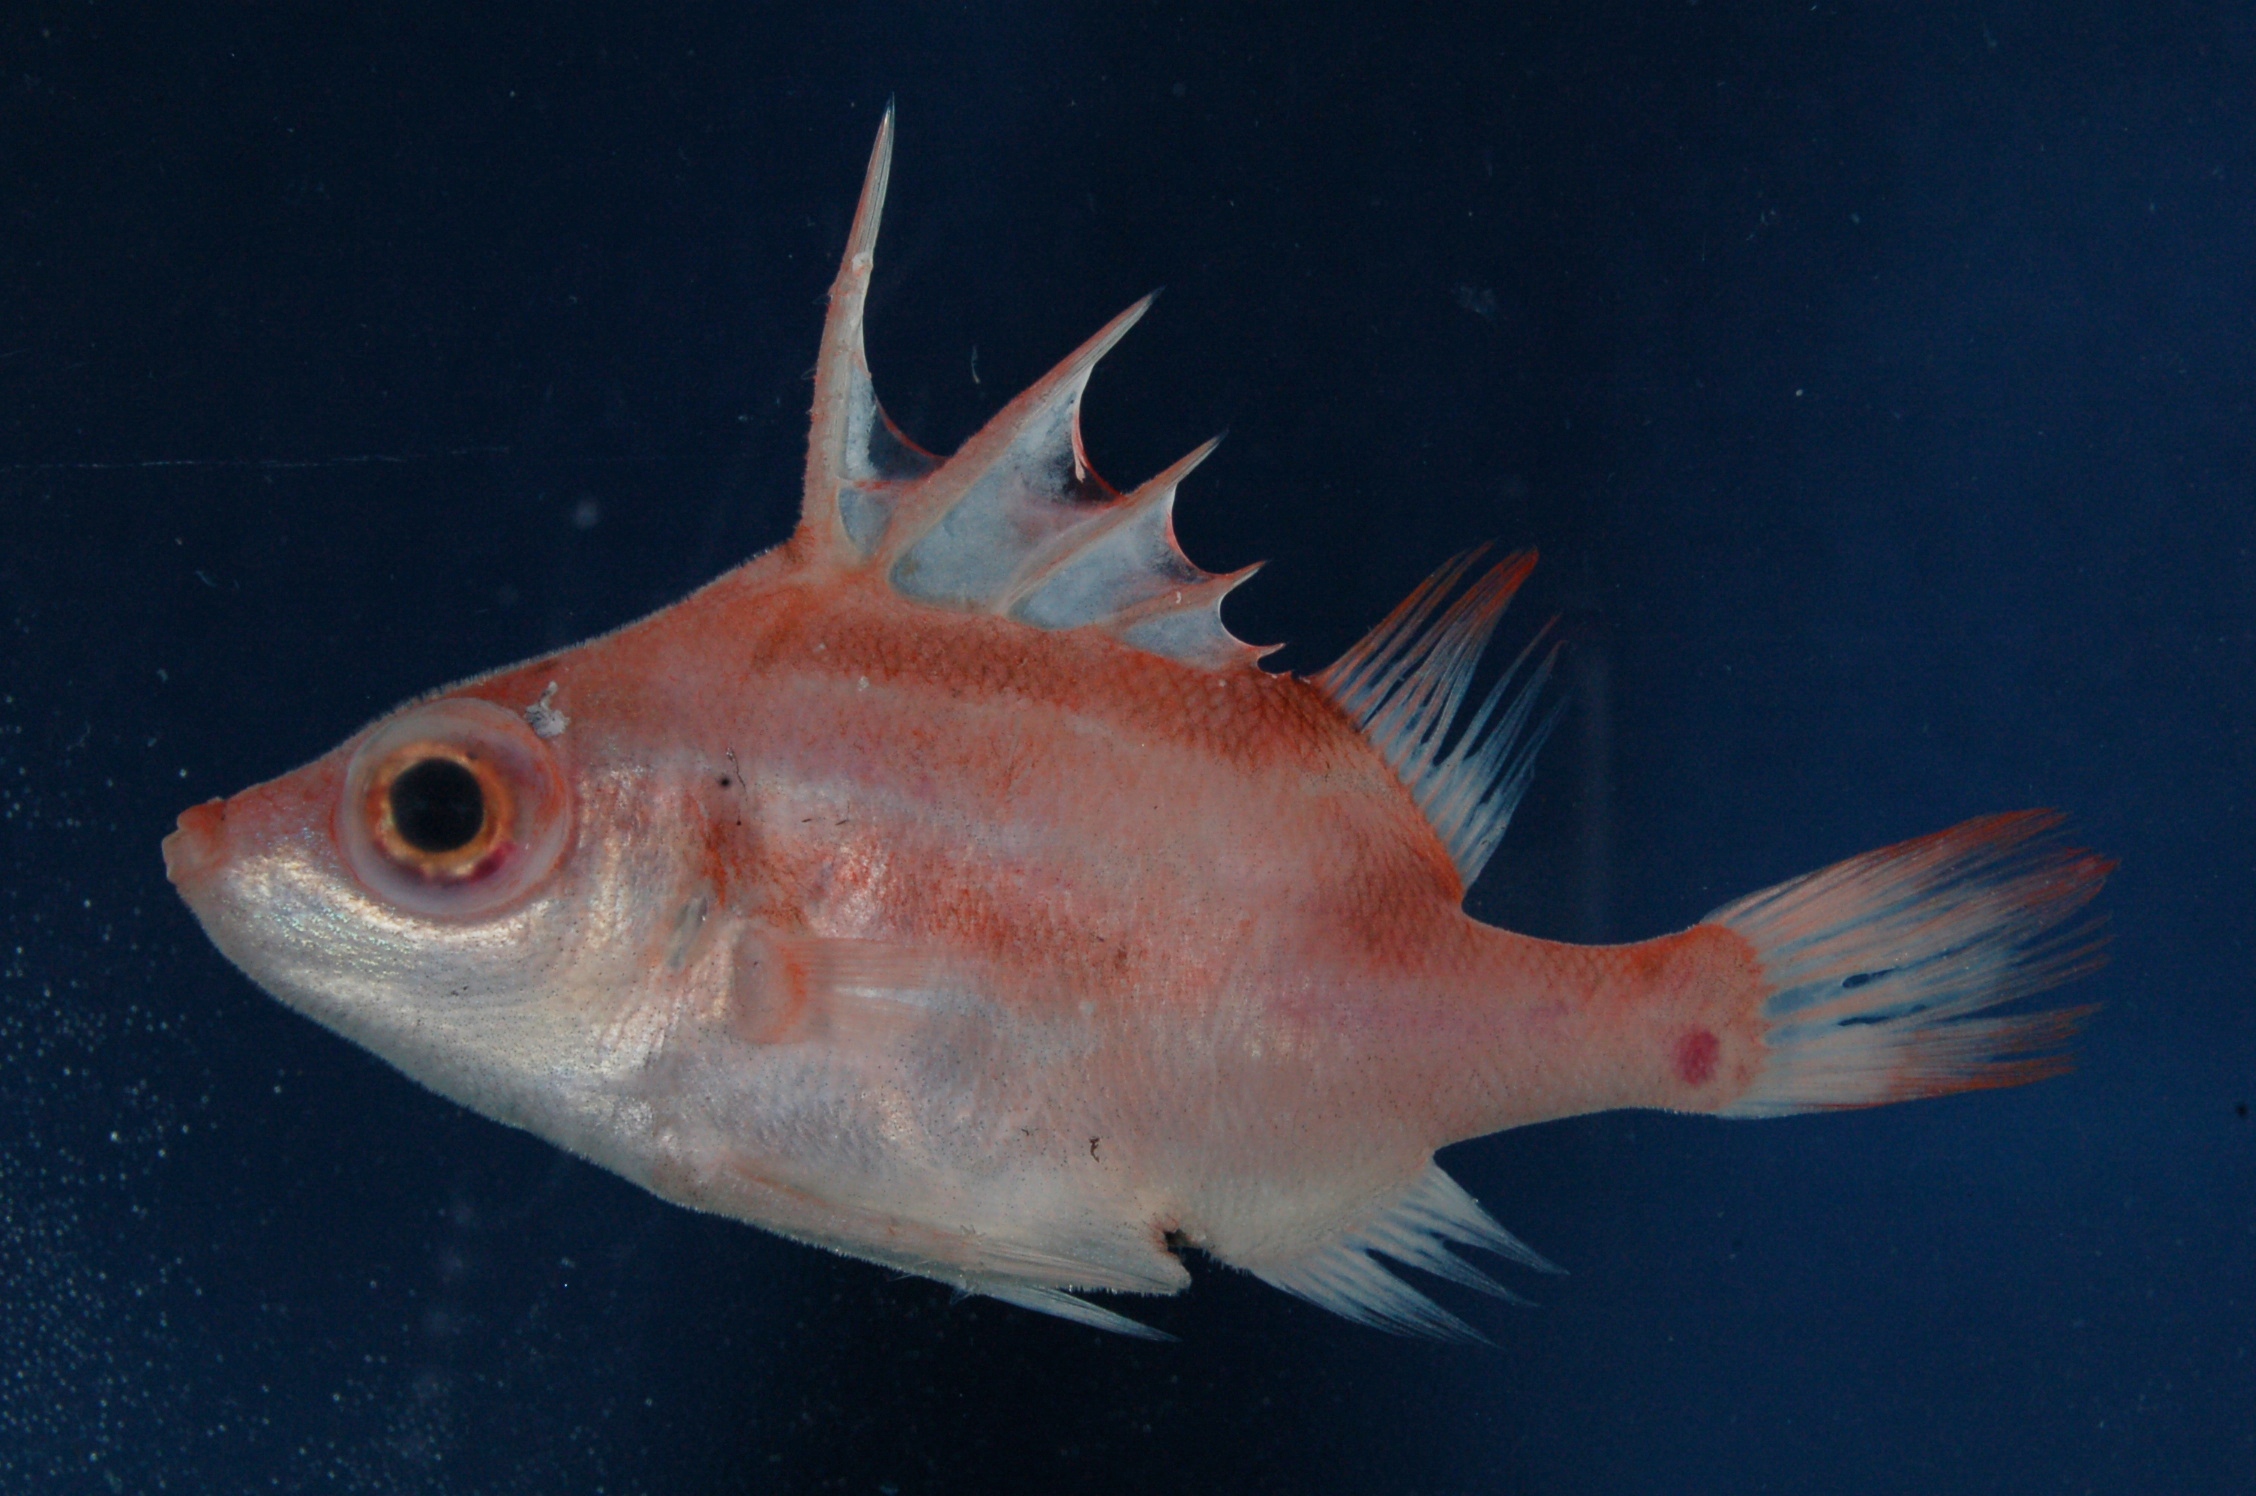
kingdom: Animalia
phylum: Chordata
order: Tetraodontiformes
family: Triacanthodidae
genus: Paratriacanthodes
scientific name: Paratriacanthodes retrospinis
